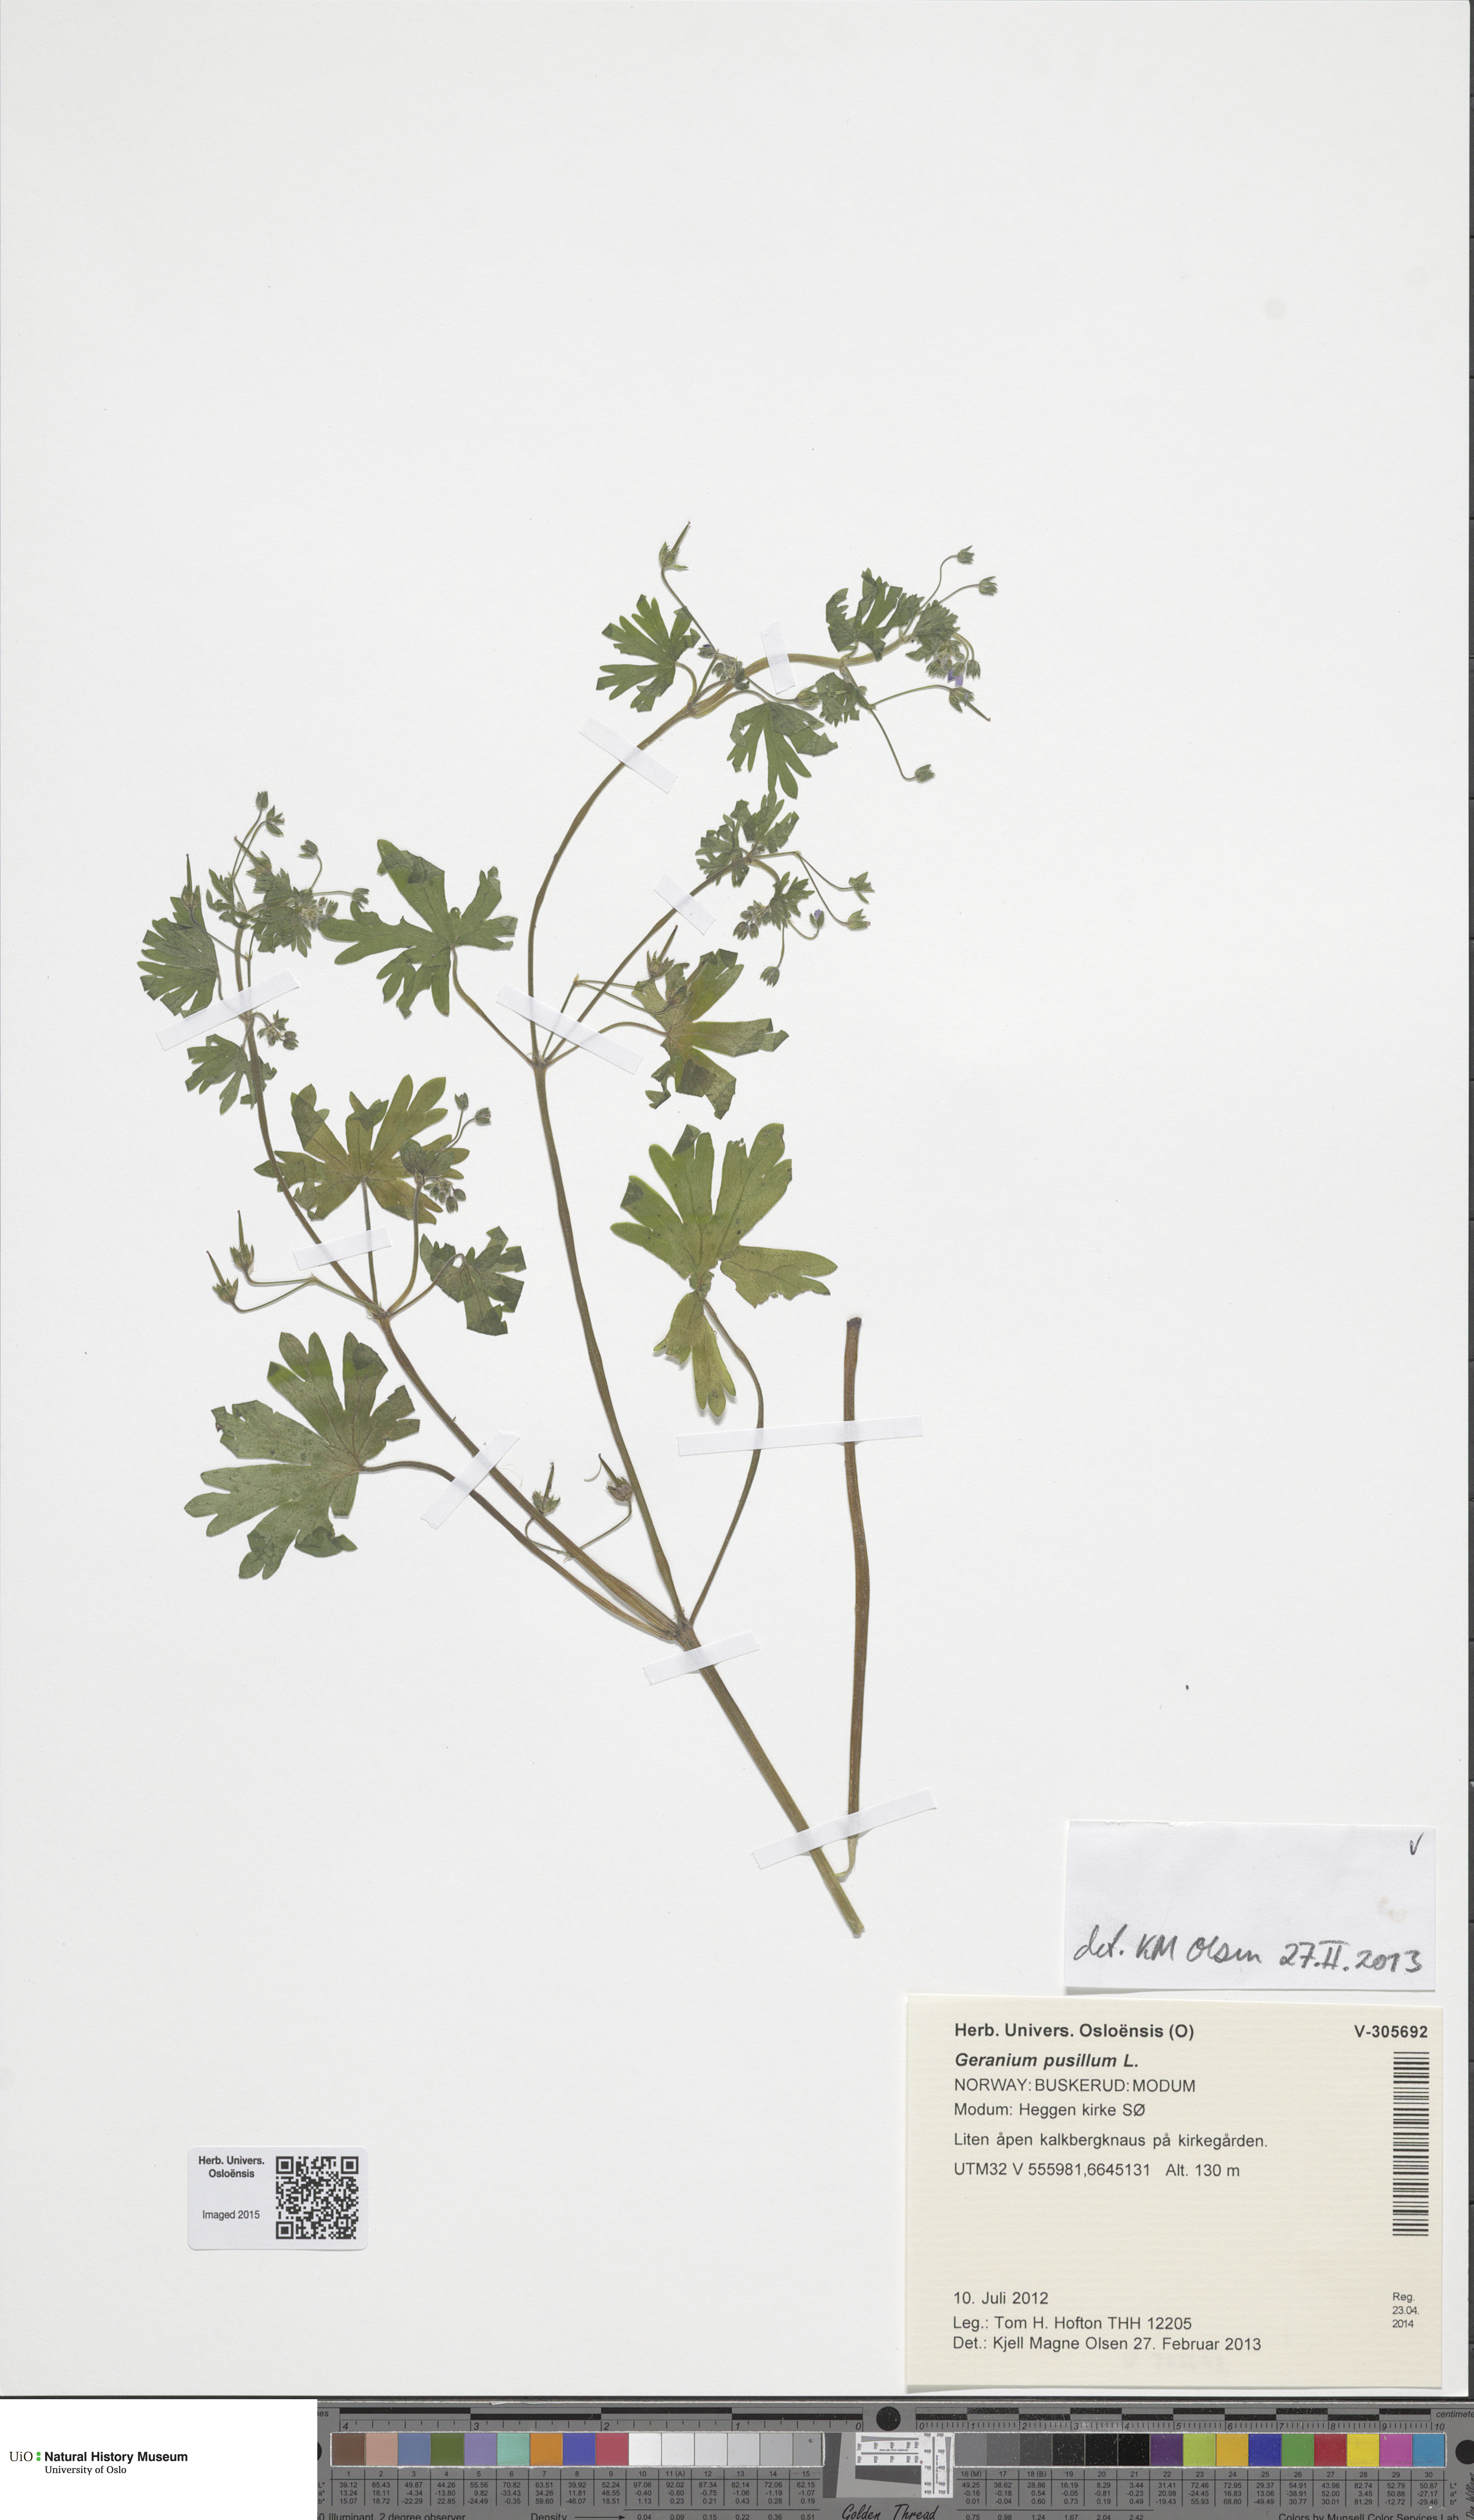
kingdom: Plantae
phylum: Tracheophyta
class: Magnoliopsida
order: Geraniales
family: Geraniaceae
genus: Geranium
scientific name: Geranium pusillum
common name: Small geranium
